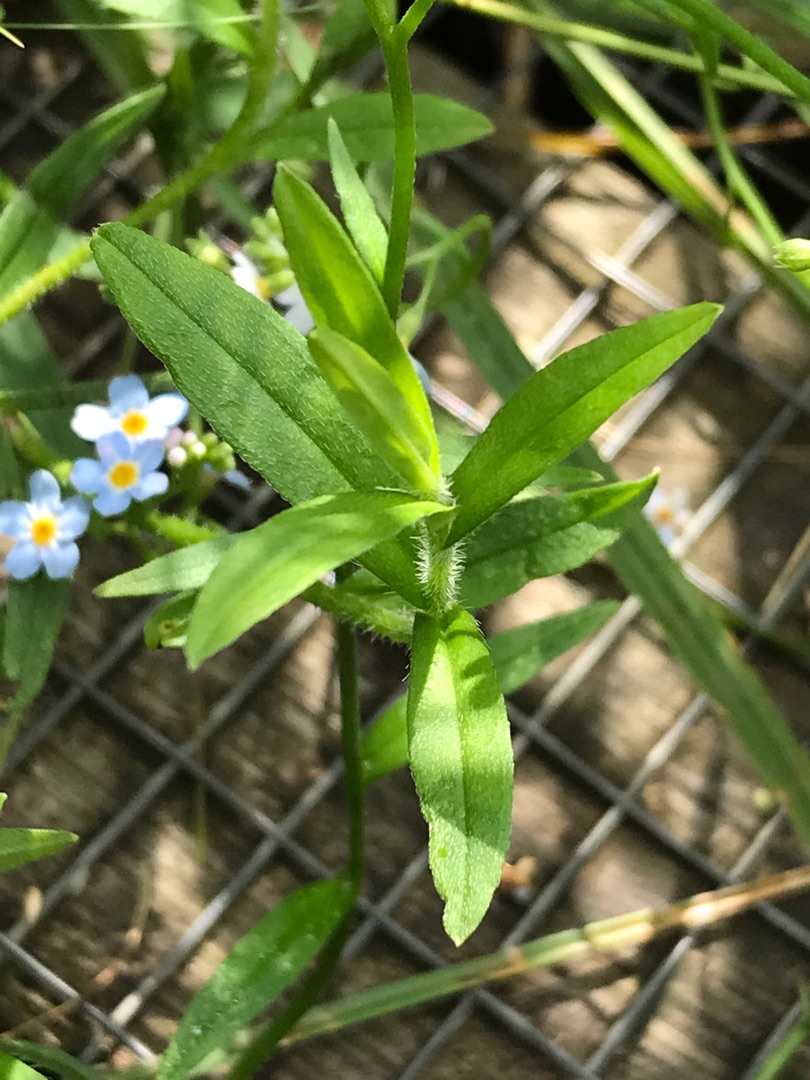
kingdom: Plantae
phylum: Tracheophyta
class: Magnoliopsida
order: Boraginales
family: Boraginaceae
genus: Myosotis
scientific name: Myosotis scorpioides
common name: Eng-forglemmigej
